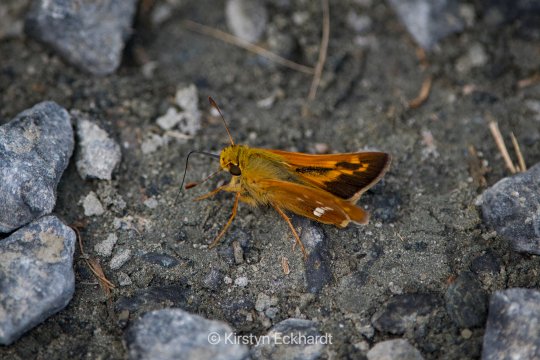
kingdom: Animalia
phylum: Arthropoda
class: Insecta
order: Lepidoptera
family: Hesperiidae
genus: Hesperia
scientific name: Hesperia leonardus
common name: Leonard's Skipper
